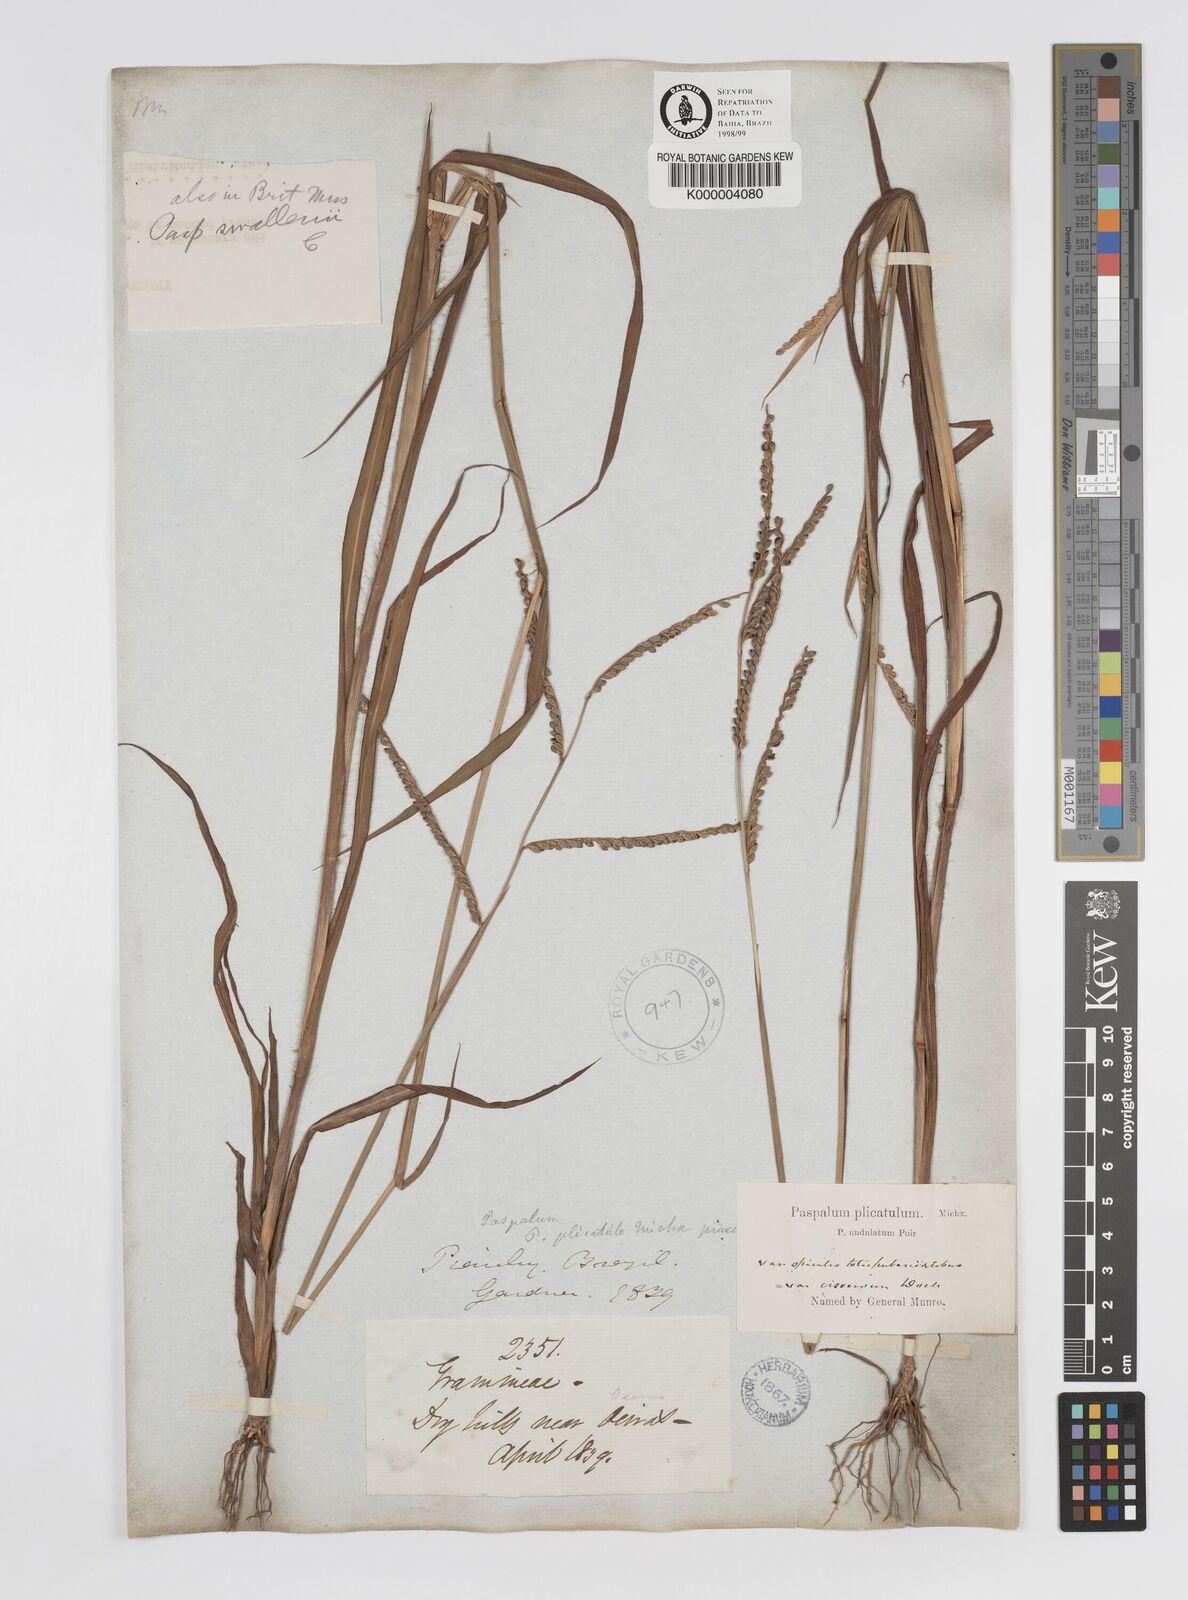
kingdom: Plantae
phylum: Tracheophyta
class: Liliopsida
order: Poales
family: Poaceae
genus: Paspalum
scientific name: Paspalum
